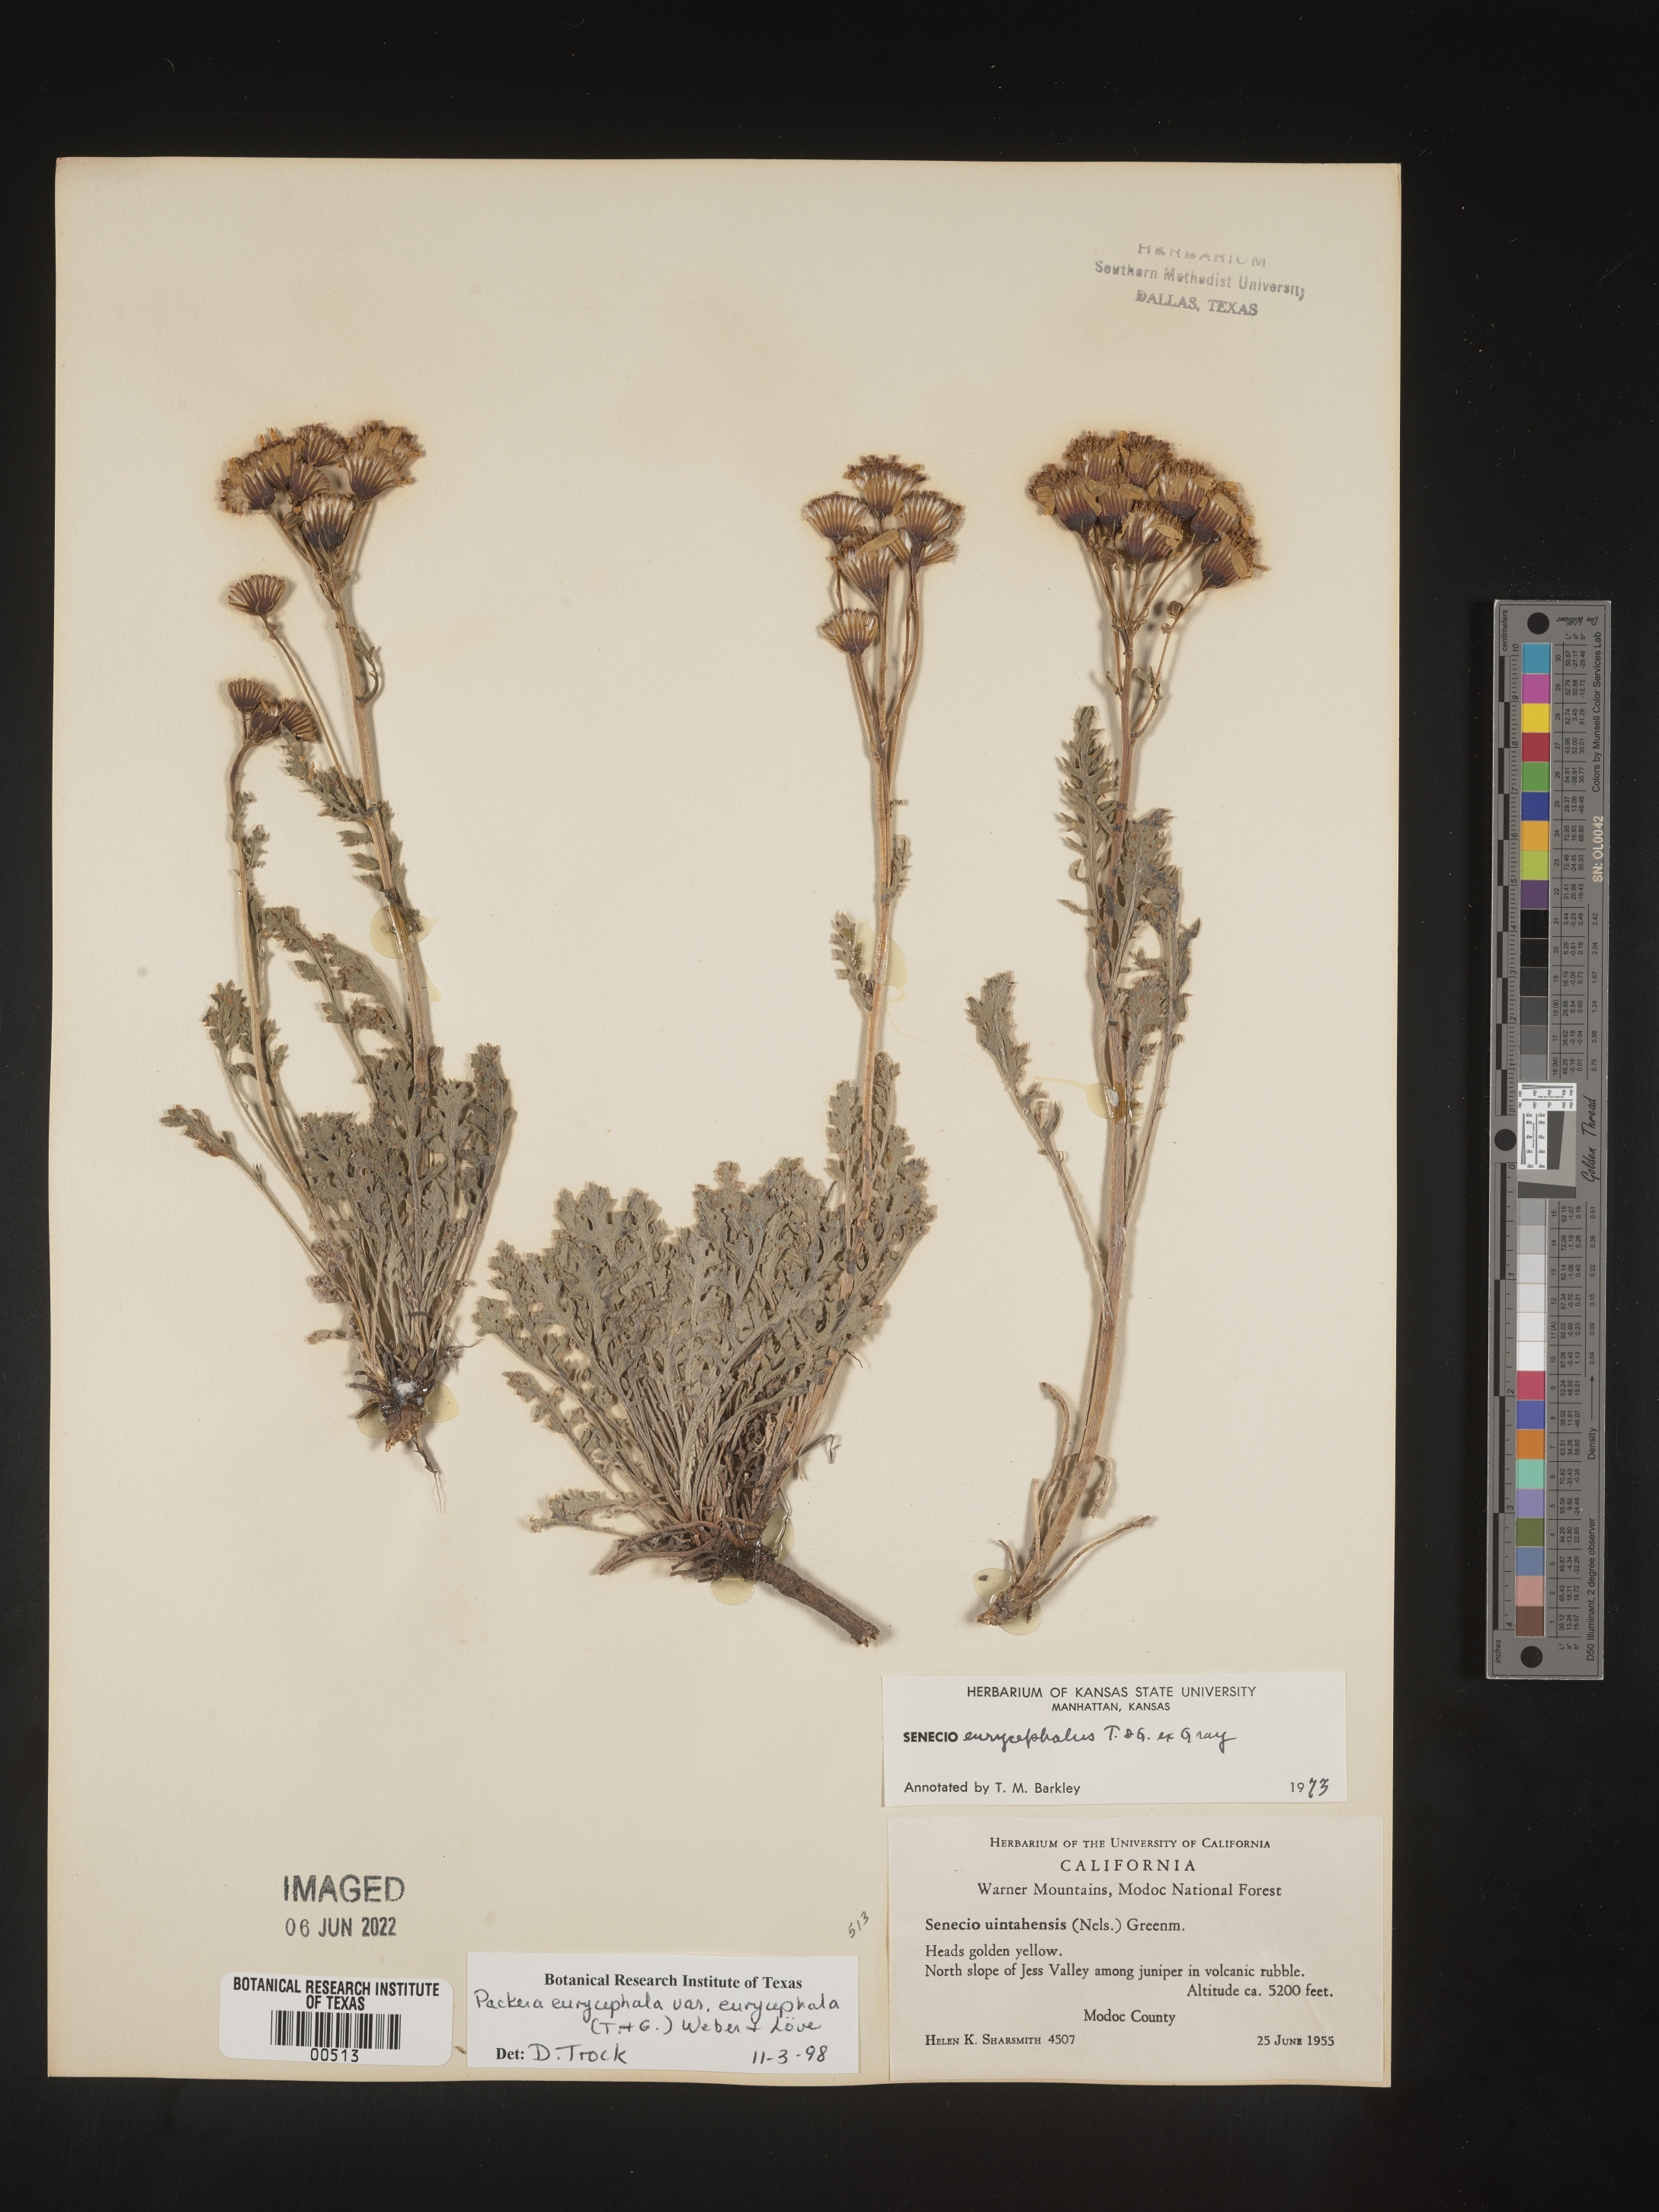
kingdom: Plantae
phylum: Tracheophyta
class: Magnoliopsida
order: Asterales
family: Asteraceae
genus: Packera
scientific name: Packera eurycephala
